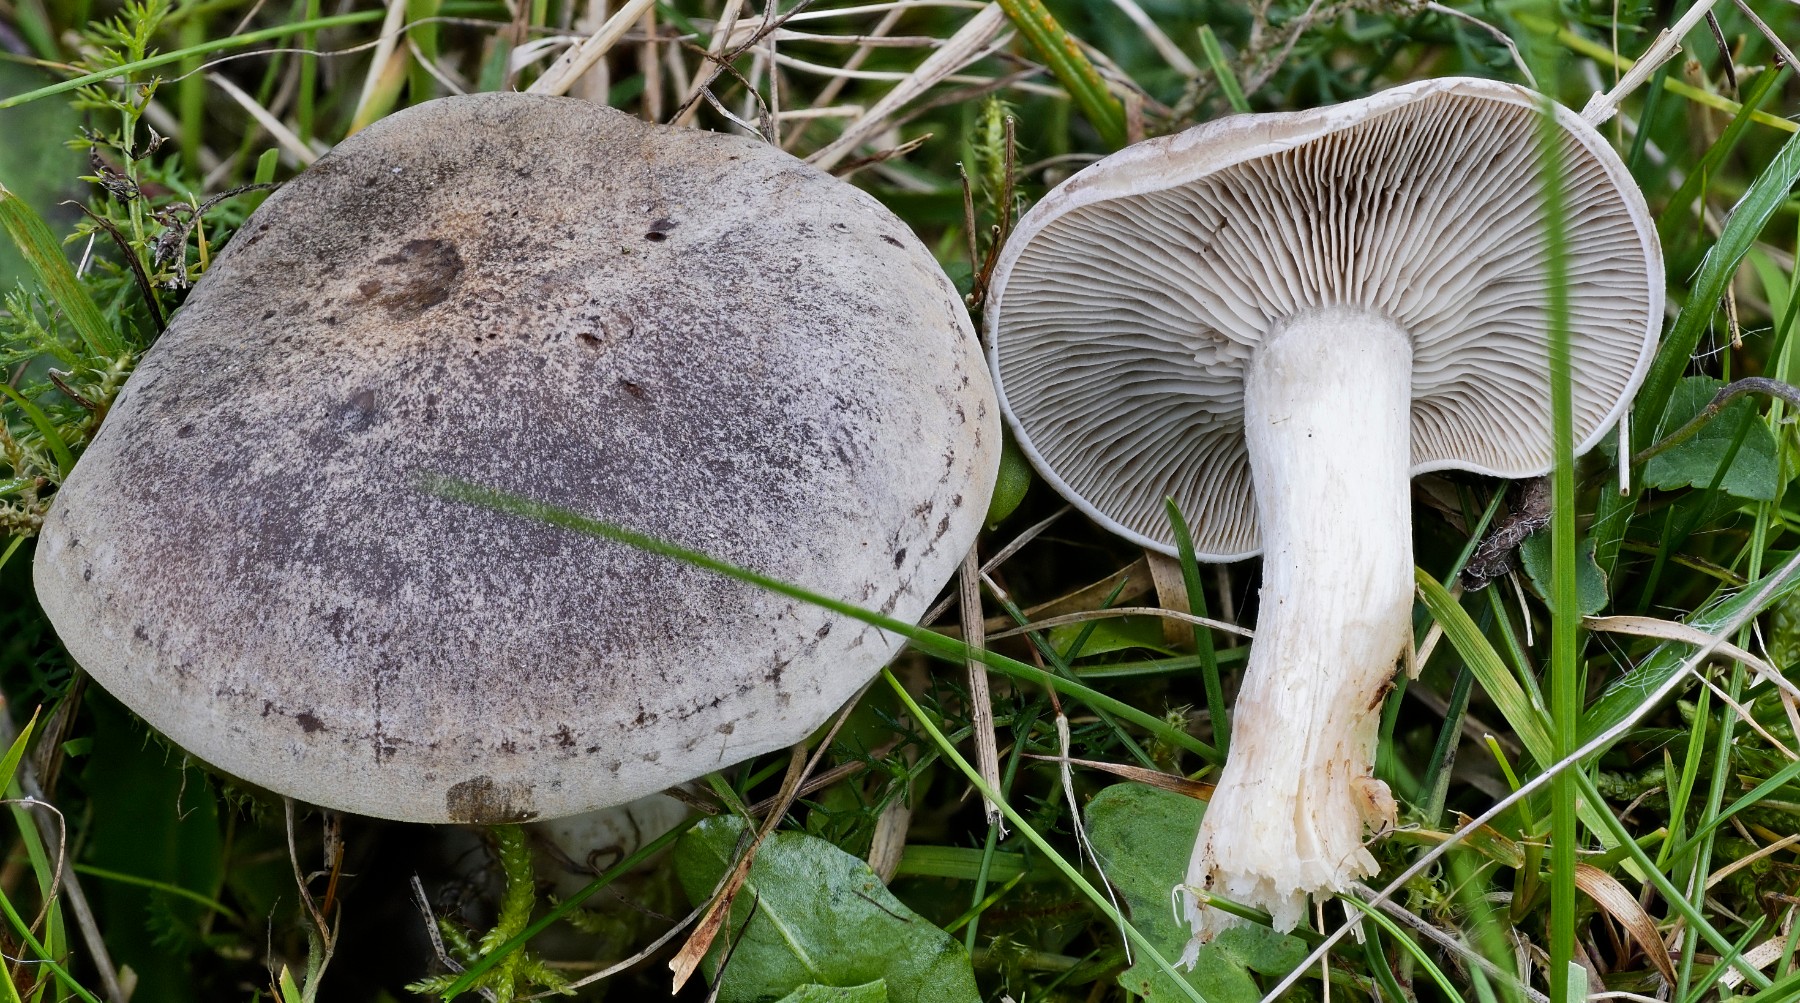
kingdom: Fungi
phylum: Basidiomycota
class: Agaricomycetes
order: Agaricales
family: Tricholomataceae
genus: Lepista
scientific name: Lepista panaeolus
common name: marmoreret hekseringshat
